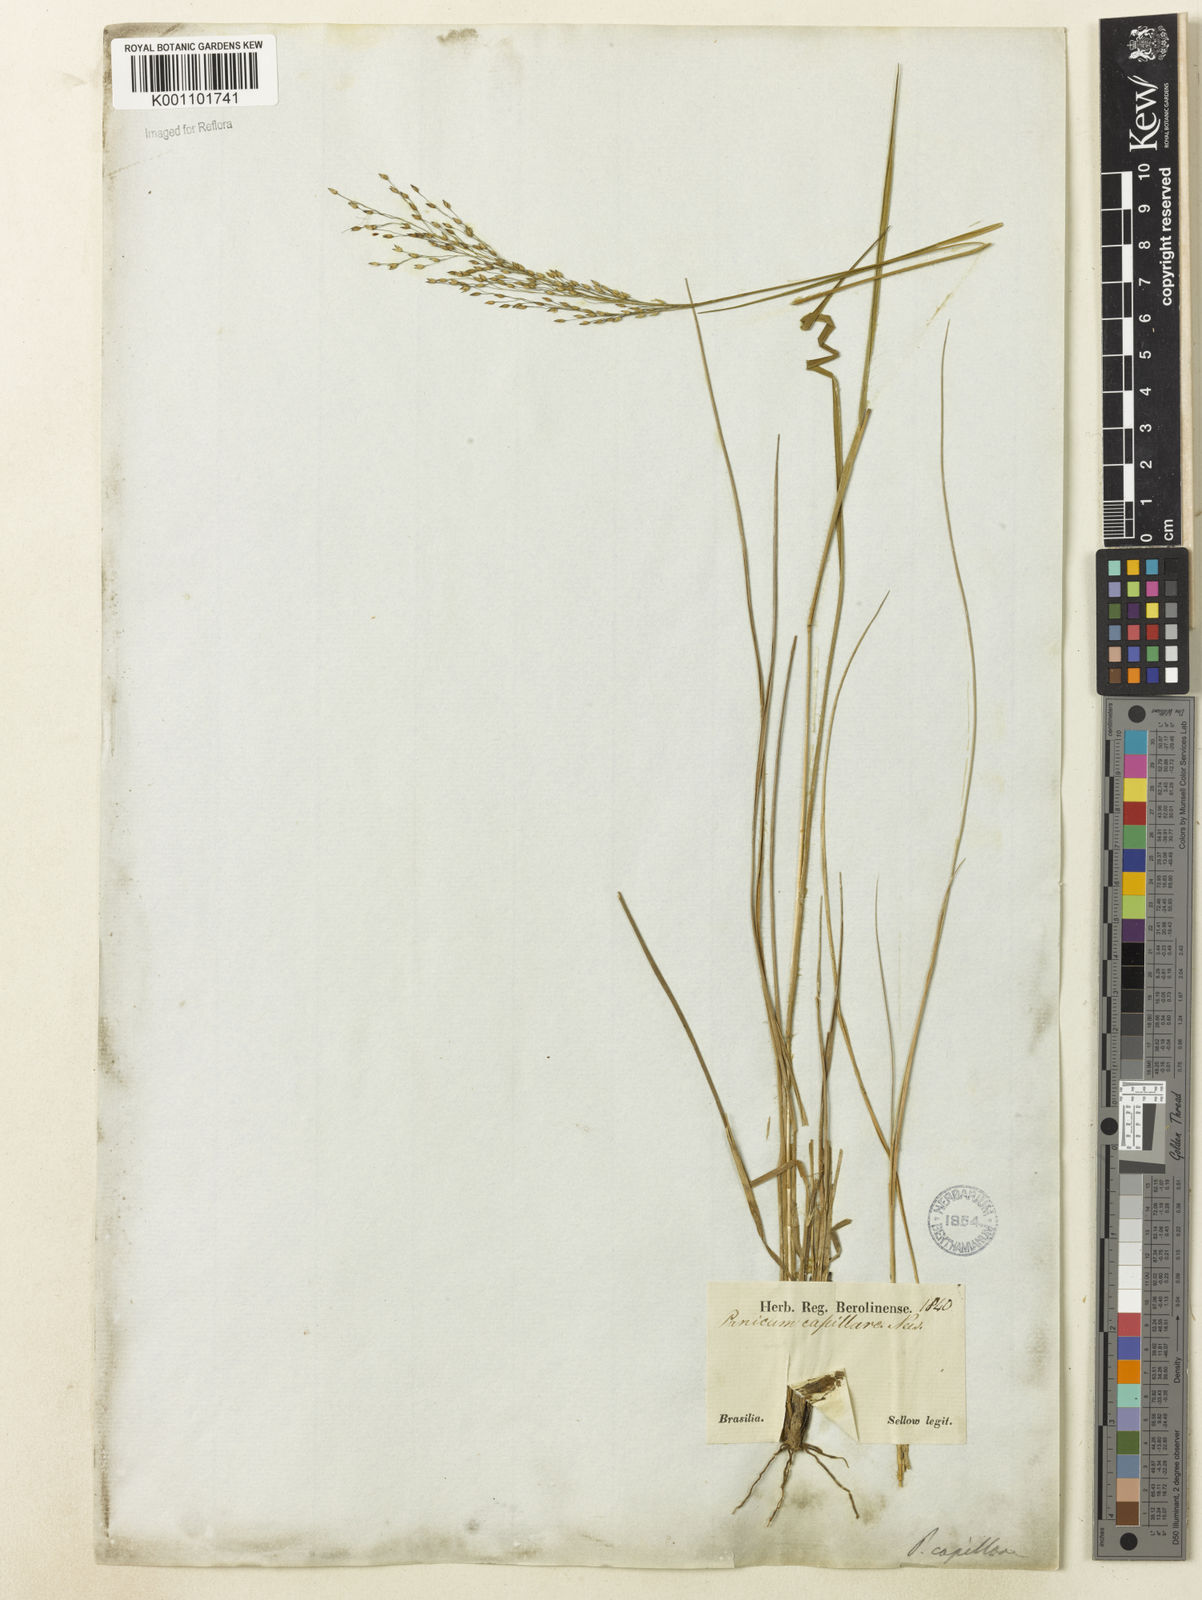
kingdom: Plantae
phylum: Tracheophyta
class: Liliopsida
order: Poales
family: Poaceae
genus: Panicum
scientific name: Panicum peladoense
